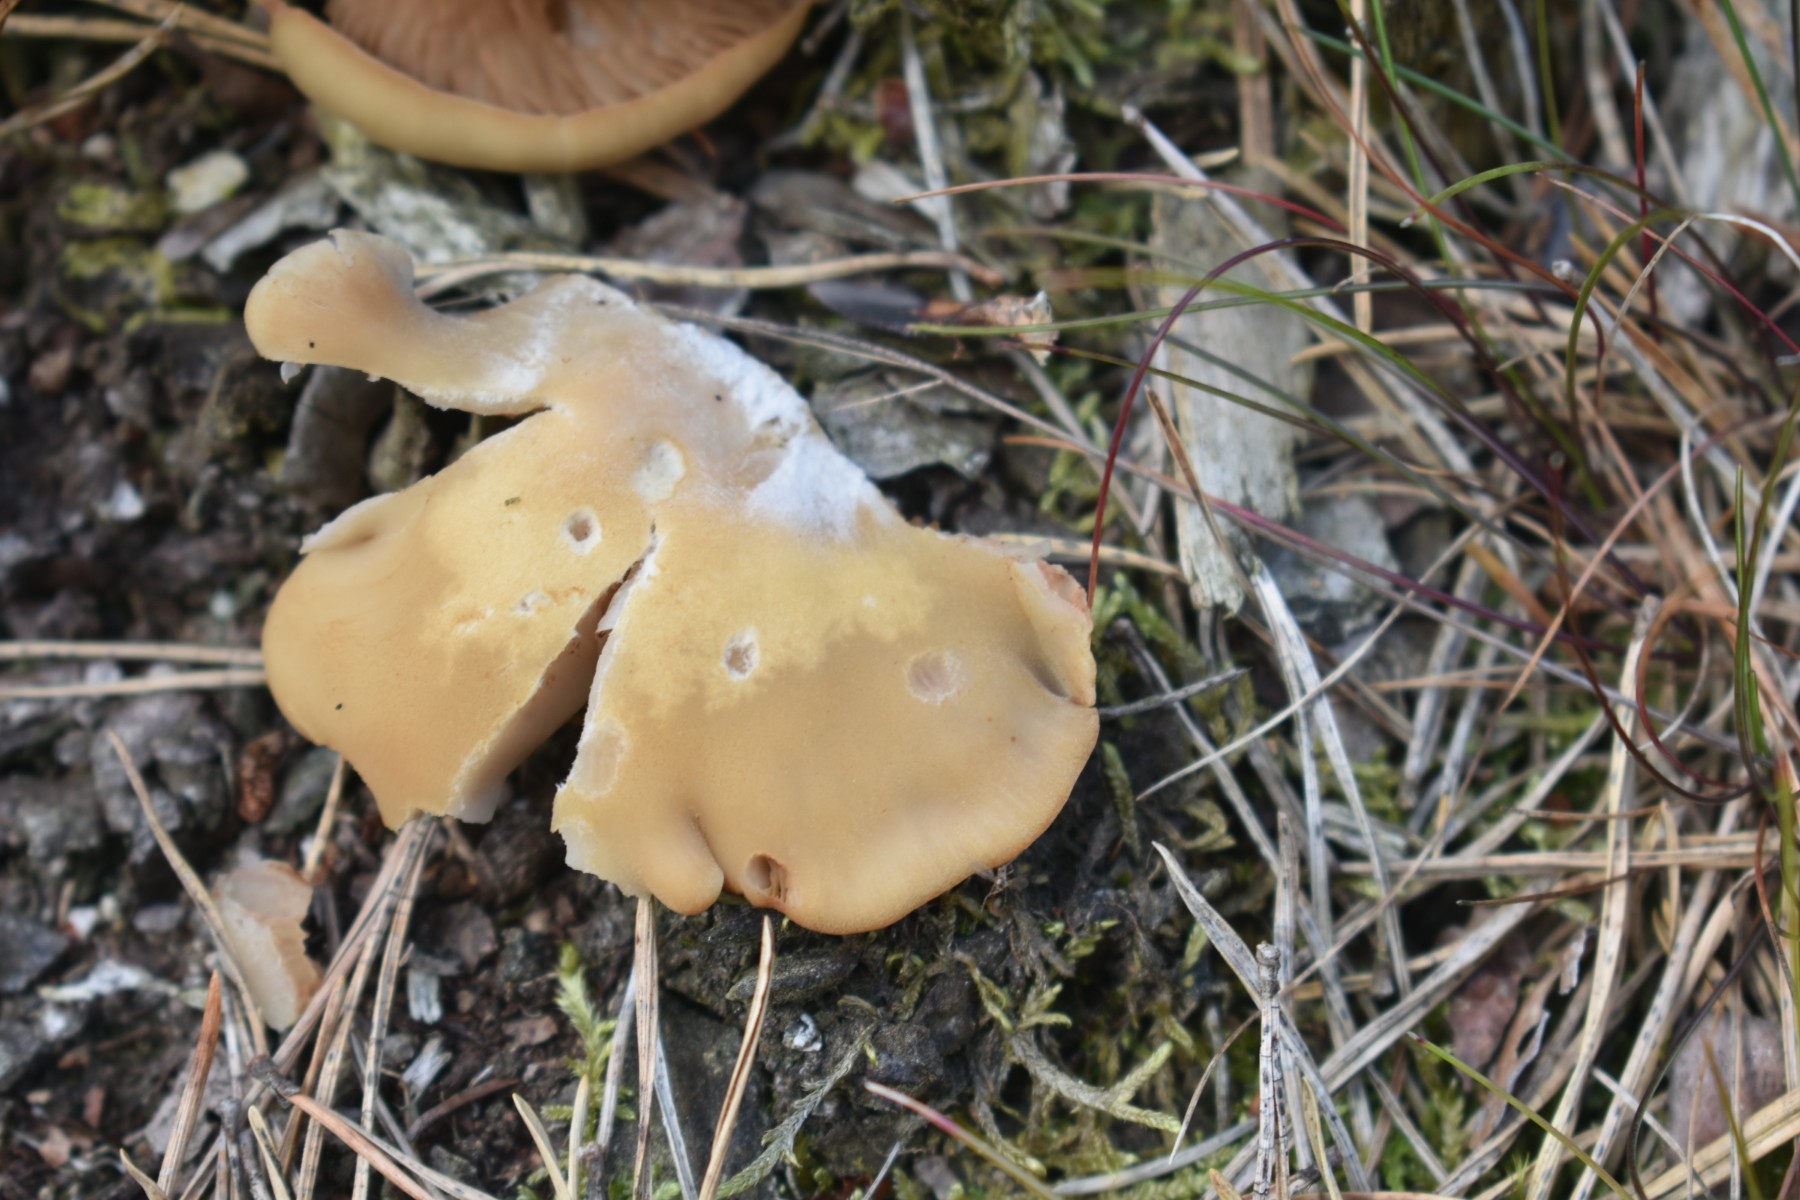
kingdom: Fungi
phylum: Basidiomycota
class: Agaricomycetes
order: Agaricales
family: Crepidotaceae
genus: Crepidotus
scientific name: Crepidotus applanatus
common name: tvefarvet muslingesvamp
